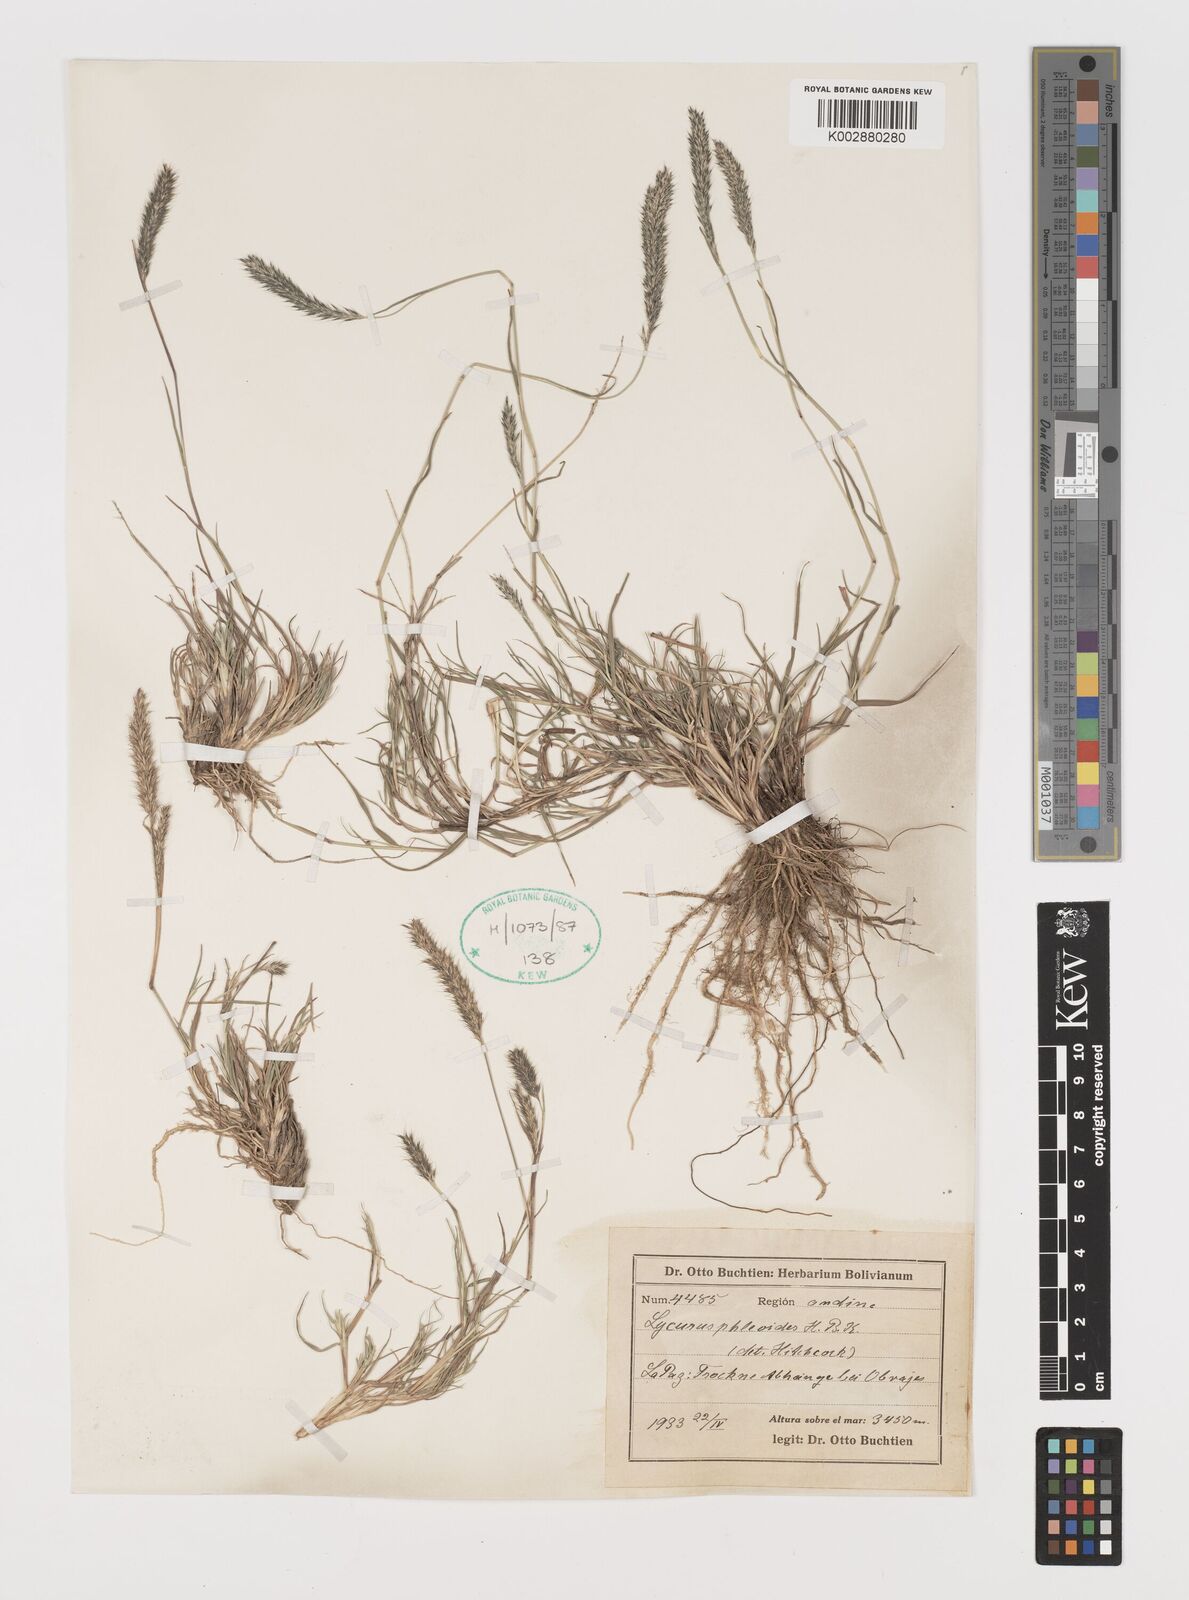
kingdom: Plantae
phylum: Tracheophyta
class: Liliopsida
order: Poales
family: Poaceae
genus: Muhlenbergia
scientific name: Muhlenbergia phleoides
